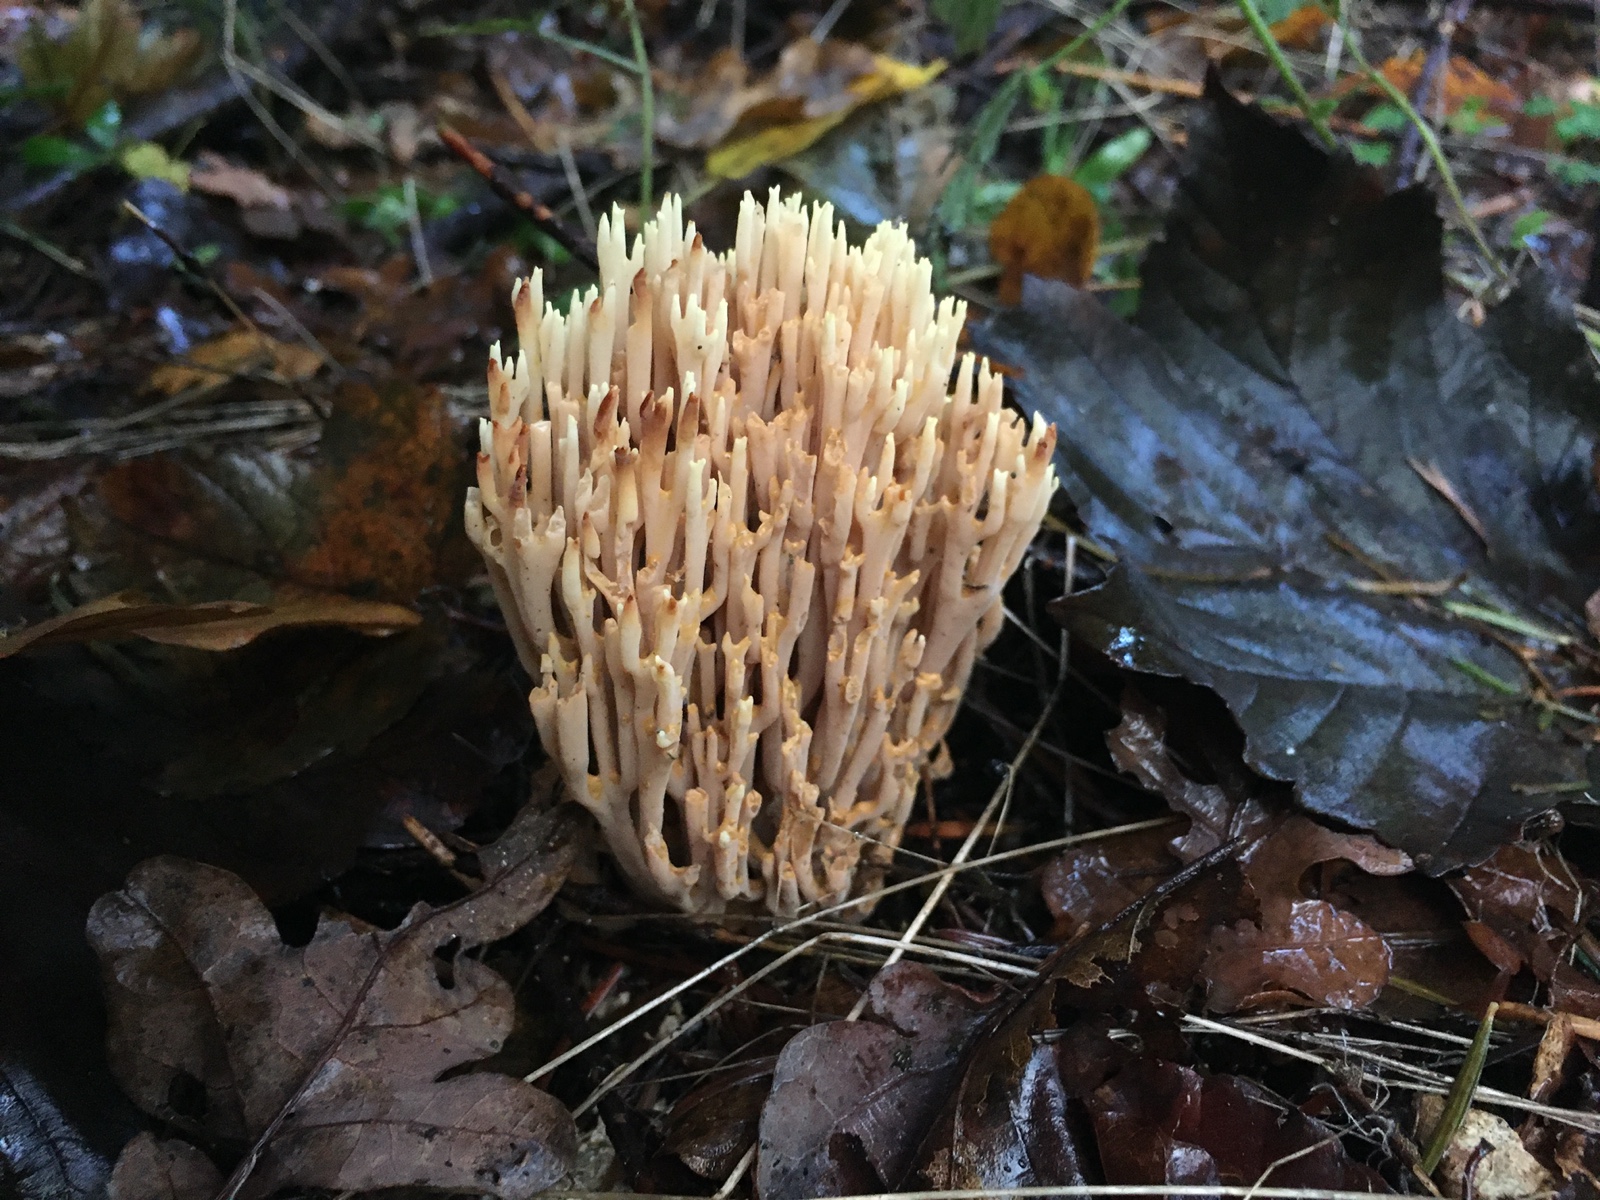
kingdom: Fungi
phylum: Basidiomycota
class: Agaricomycetes
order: Gomphales
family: Gomphaceae
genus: Ramaria
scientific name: Ramaria stricta
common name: rank koralsvamp
